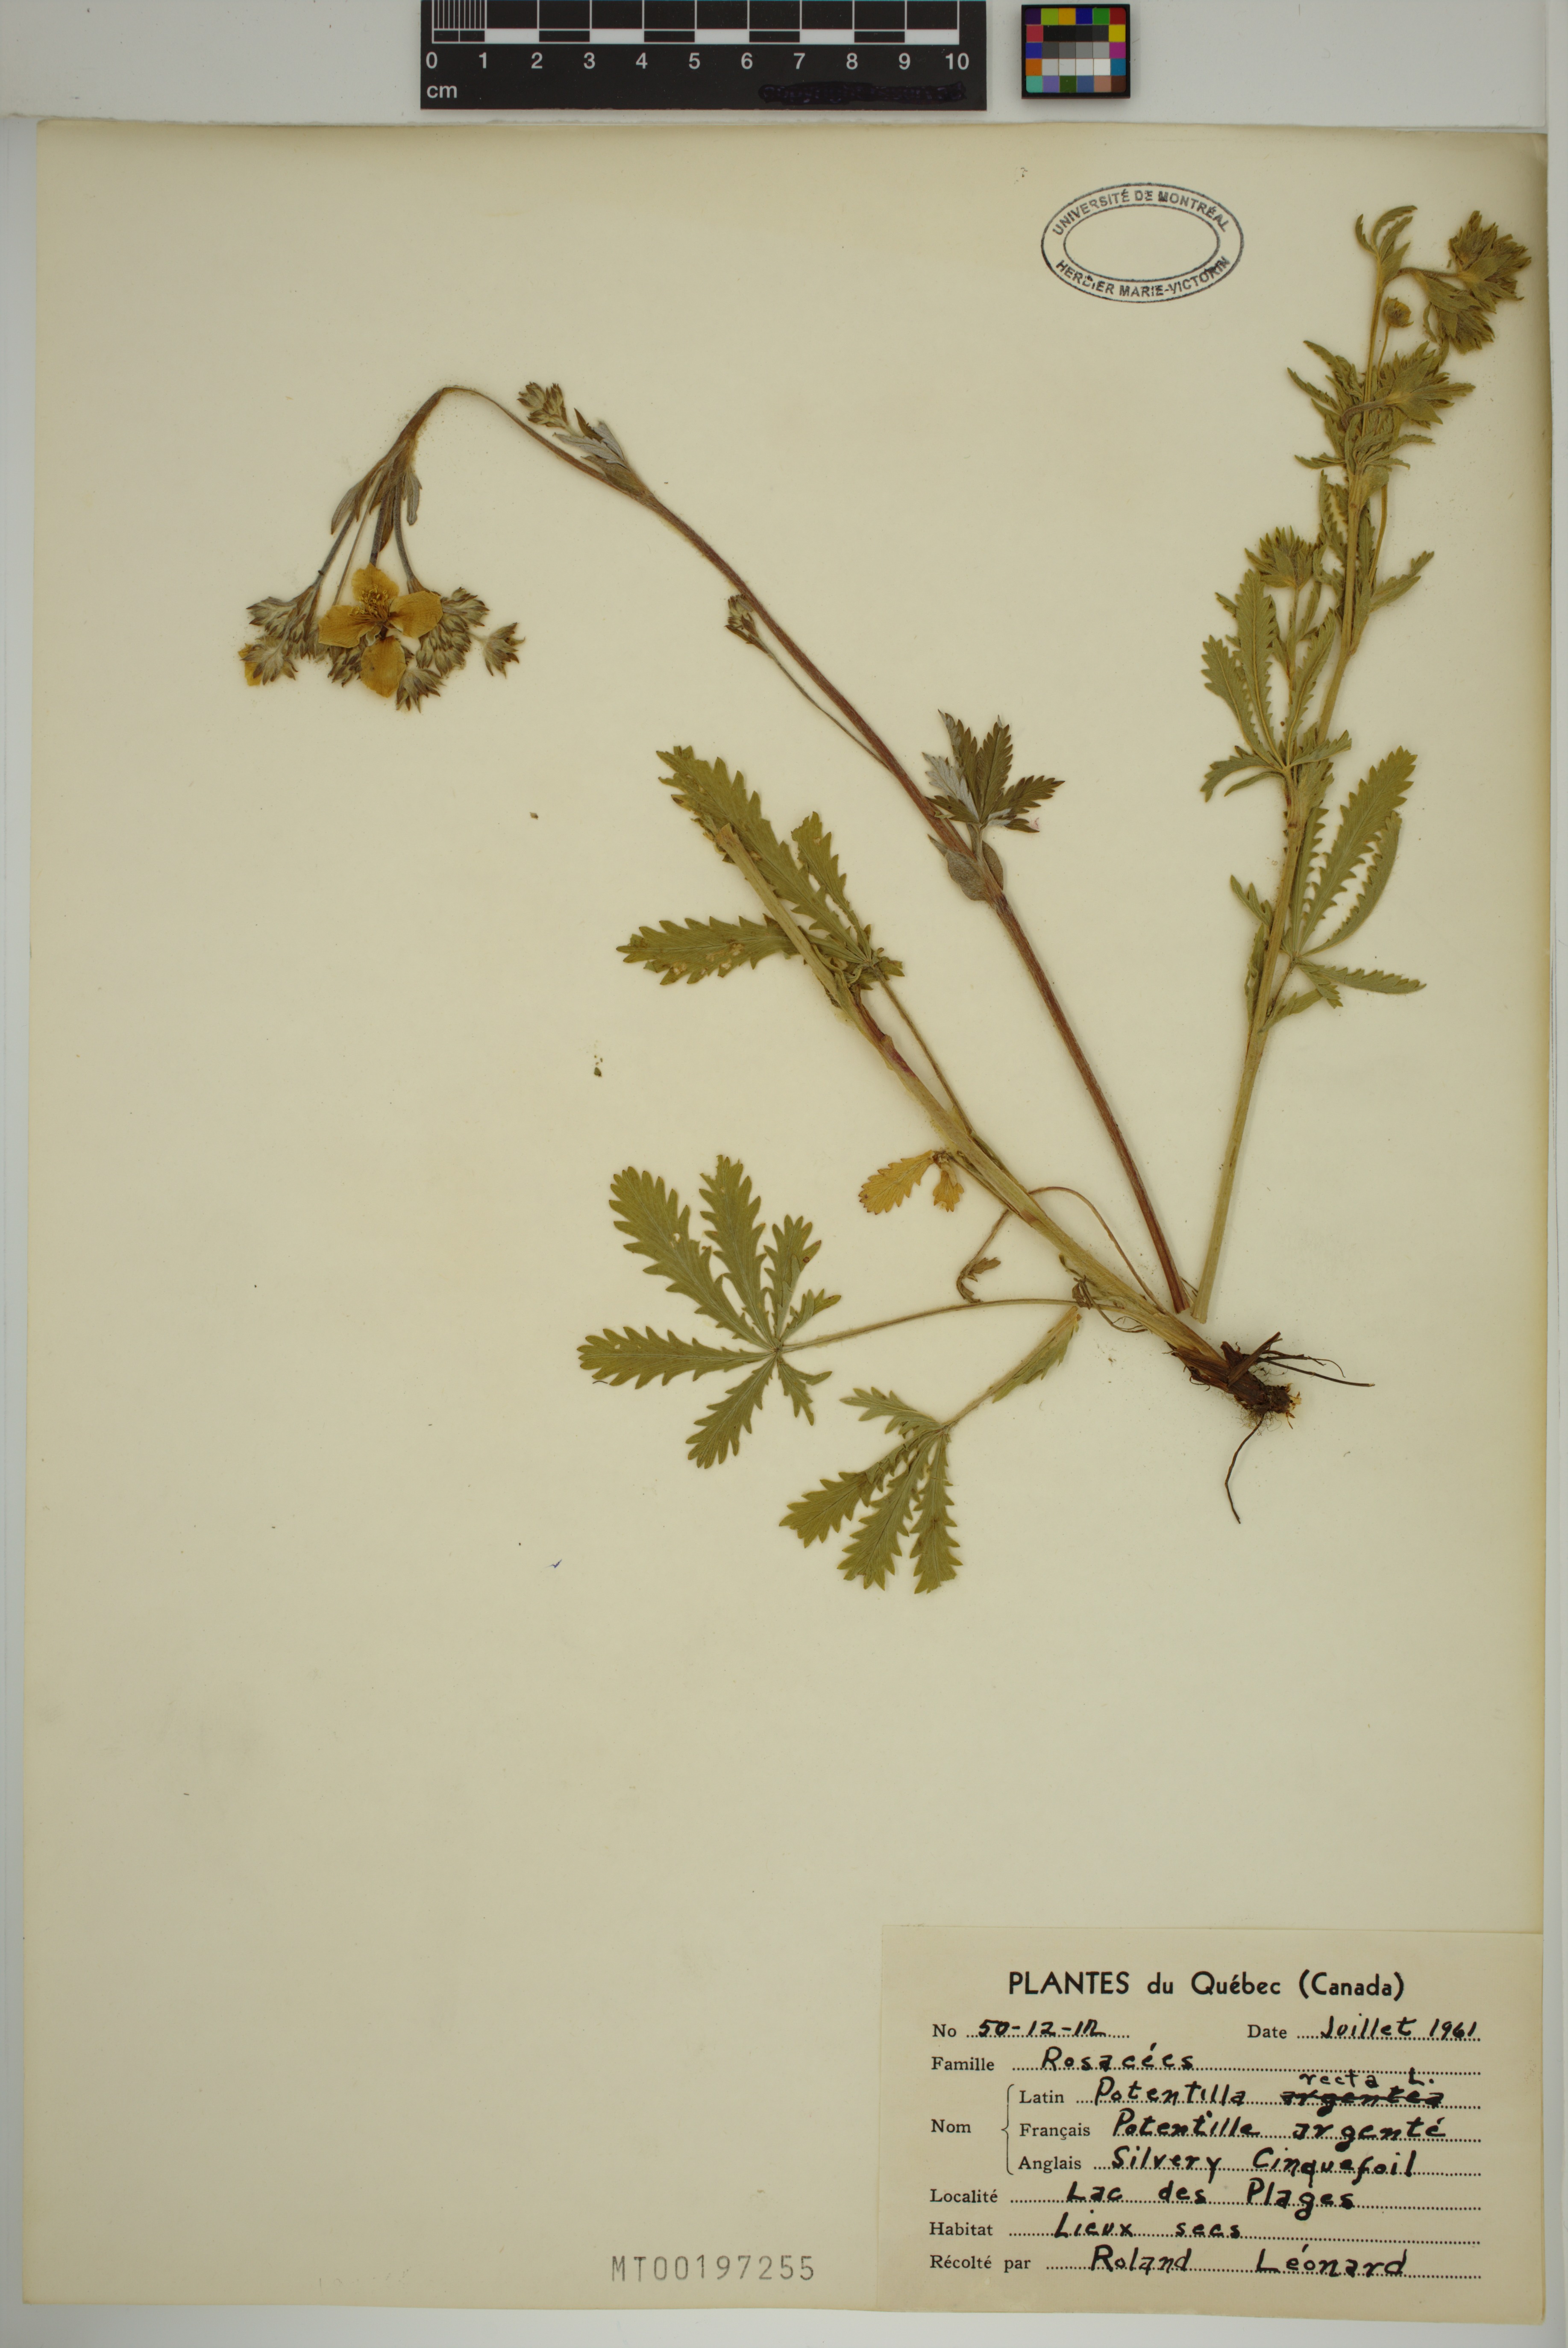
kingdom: Plantae
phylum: Tracheophyta
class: Magnoliopsida
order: Rosales
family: Rosaceae
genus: Potentilla
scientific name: Potentilla recta
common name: Sulphur cinquefoil
